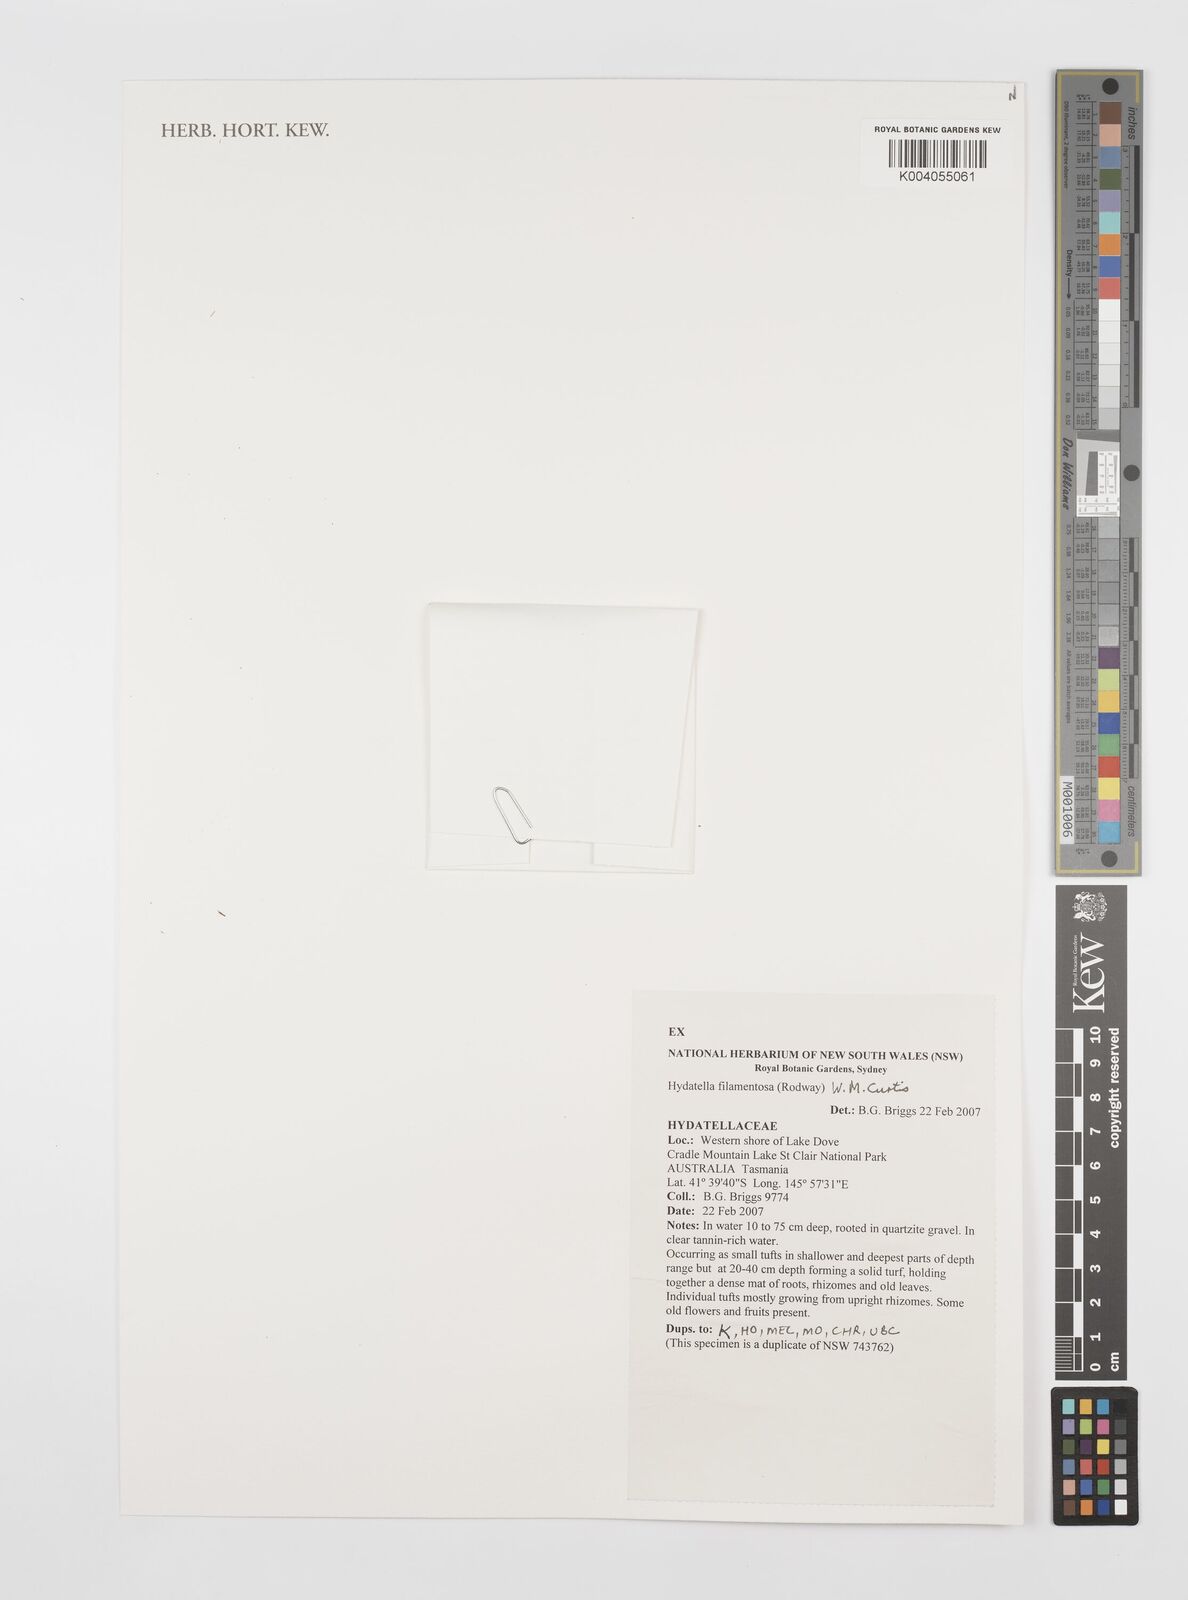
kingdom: Plantae
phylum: Tracheophyta
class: Magnoliopsida
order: Nymphaeales
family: Hydatellaceae
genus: Trithuria
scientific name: Trithuria filamentosa
